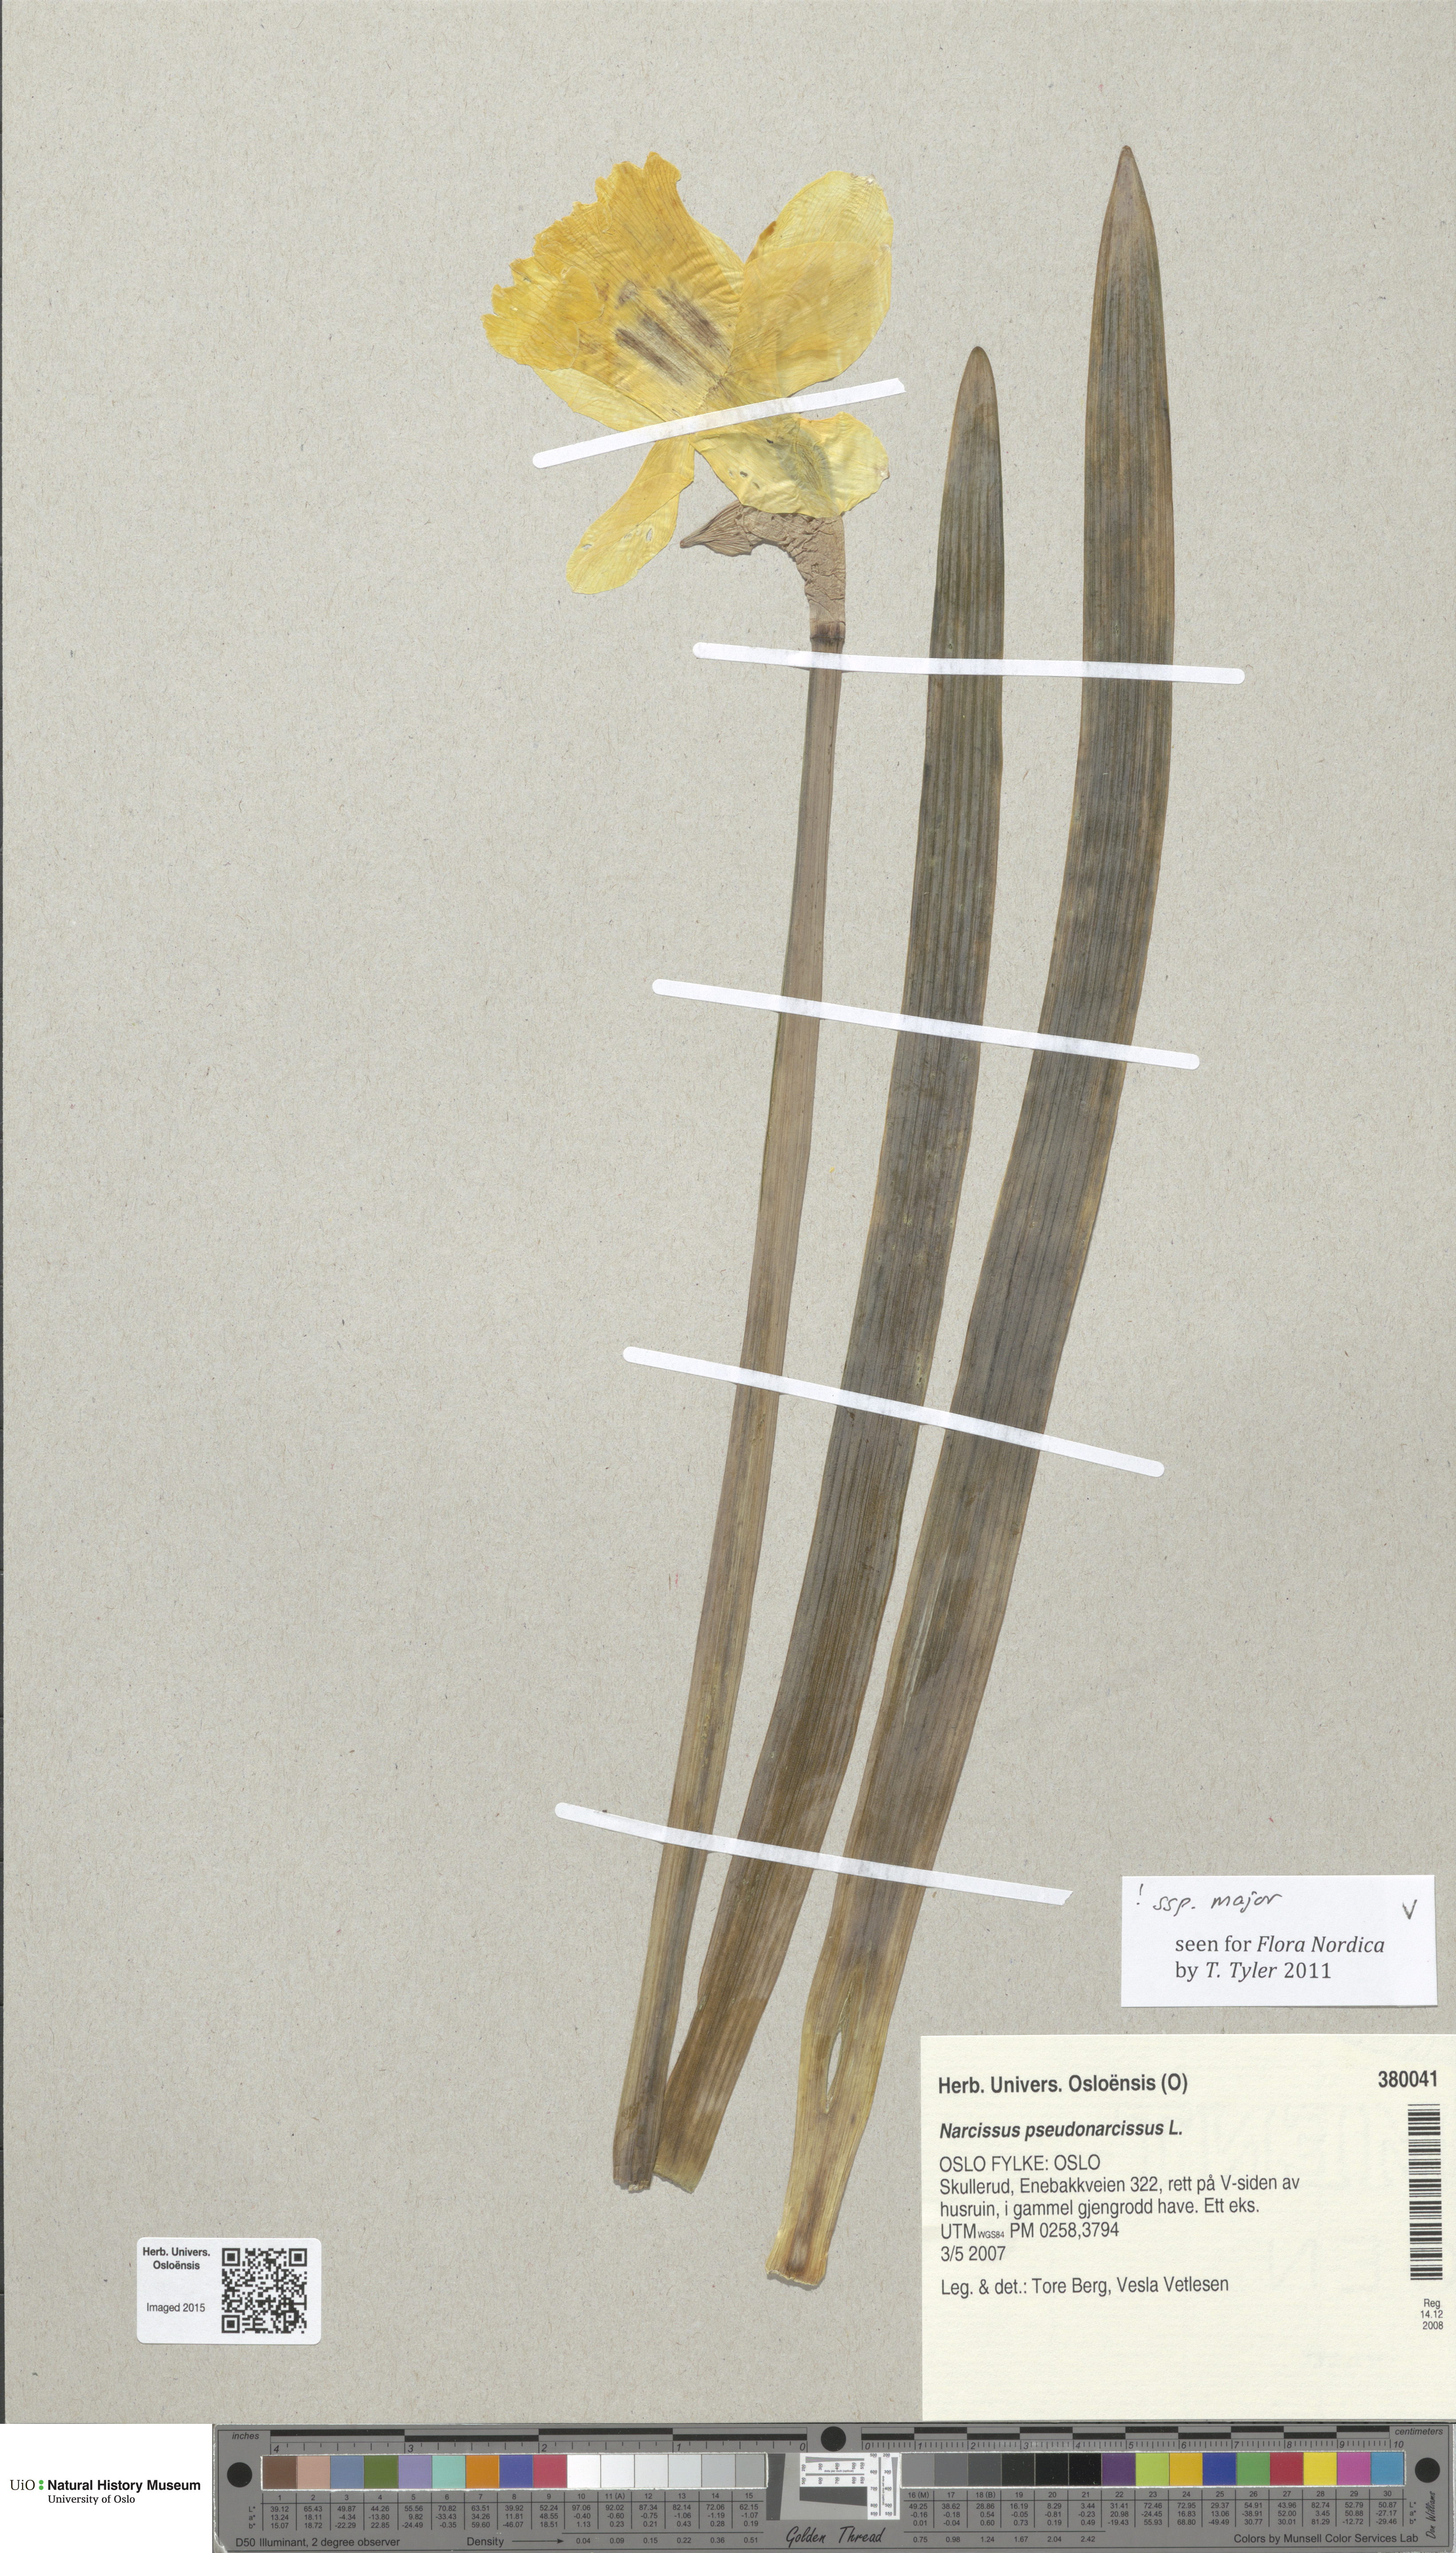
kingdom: Plantae
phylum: Tracheophyta
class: Liliopsida
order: Asparagales
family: Amaryllidaceae
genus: Narcissus
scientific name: Narcissus pseudonarcissus
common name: Daffodil
